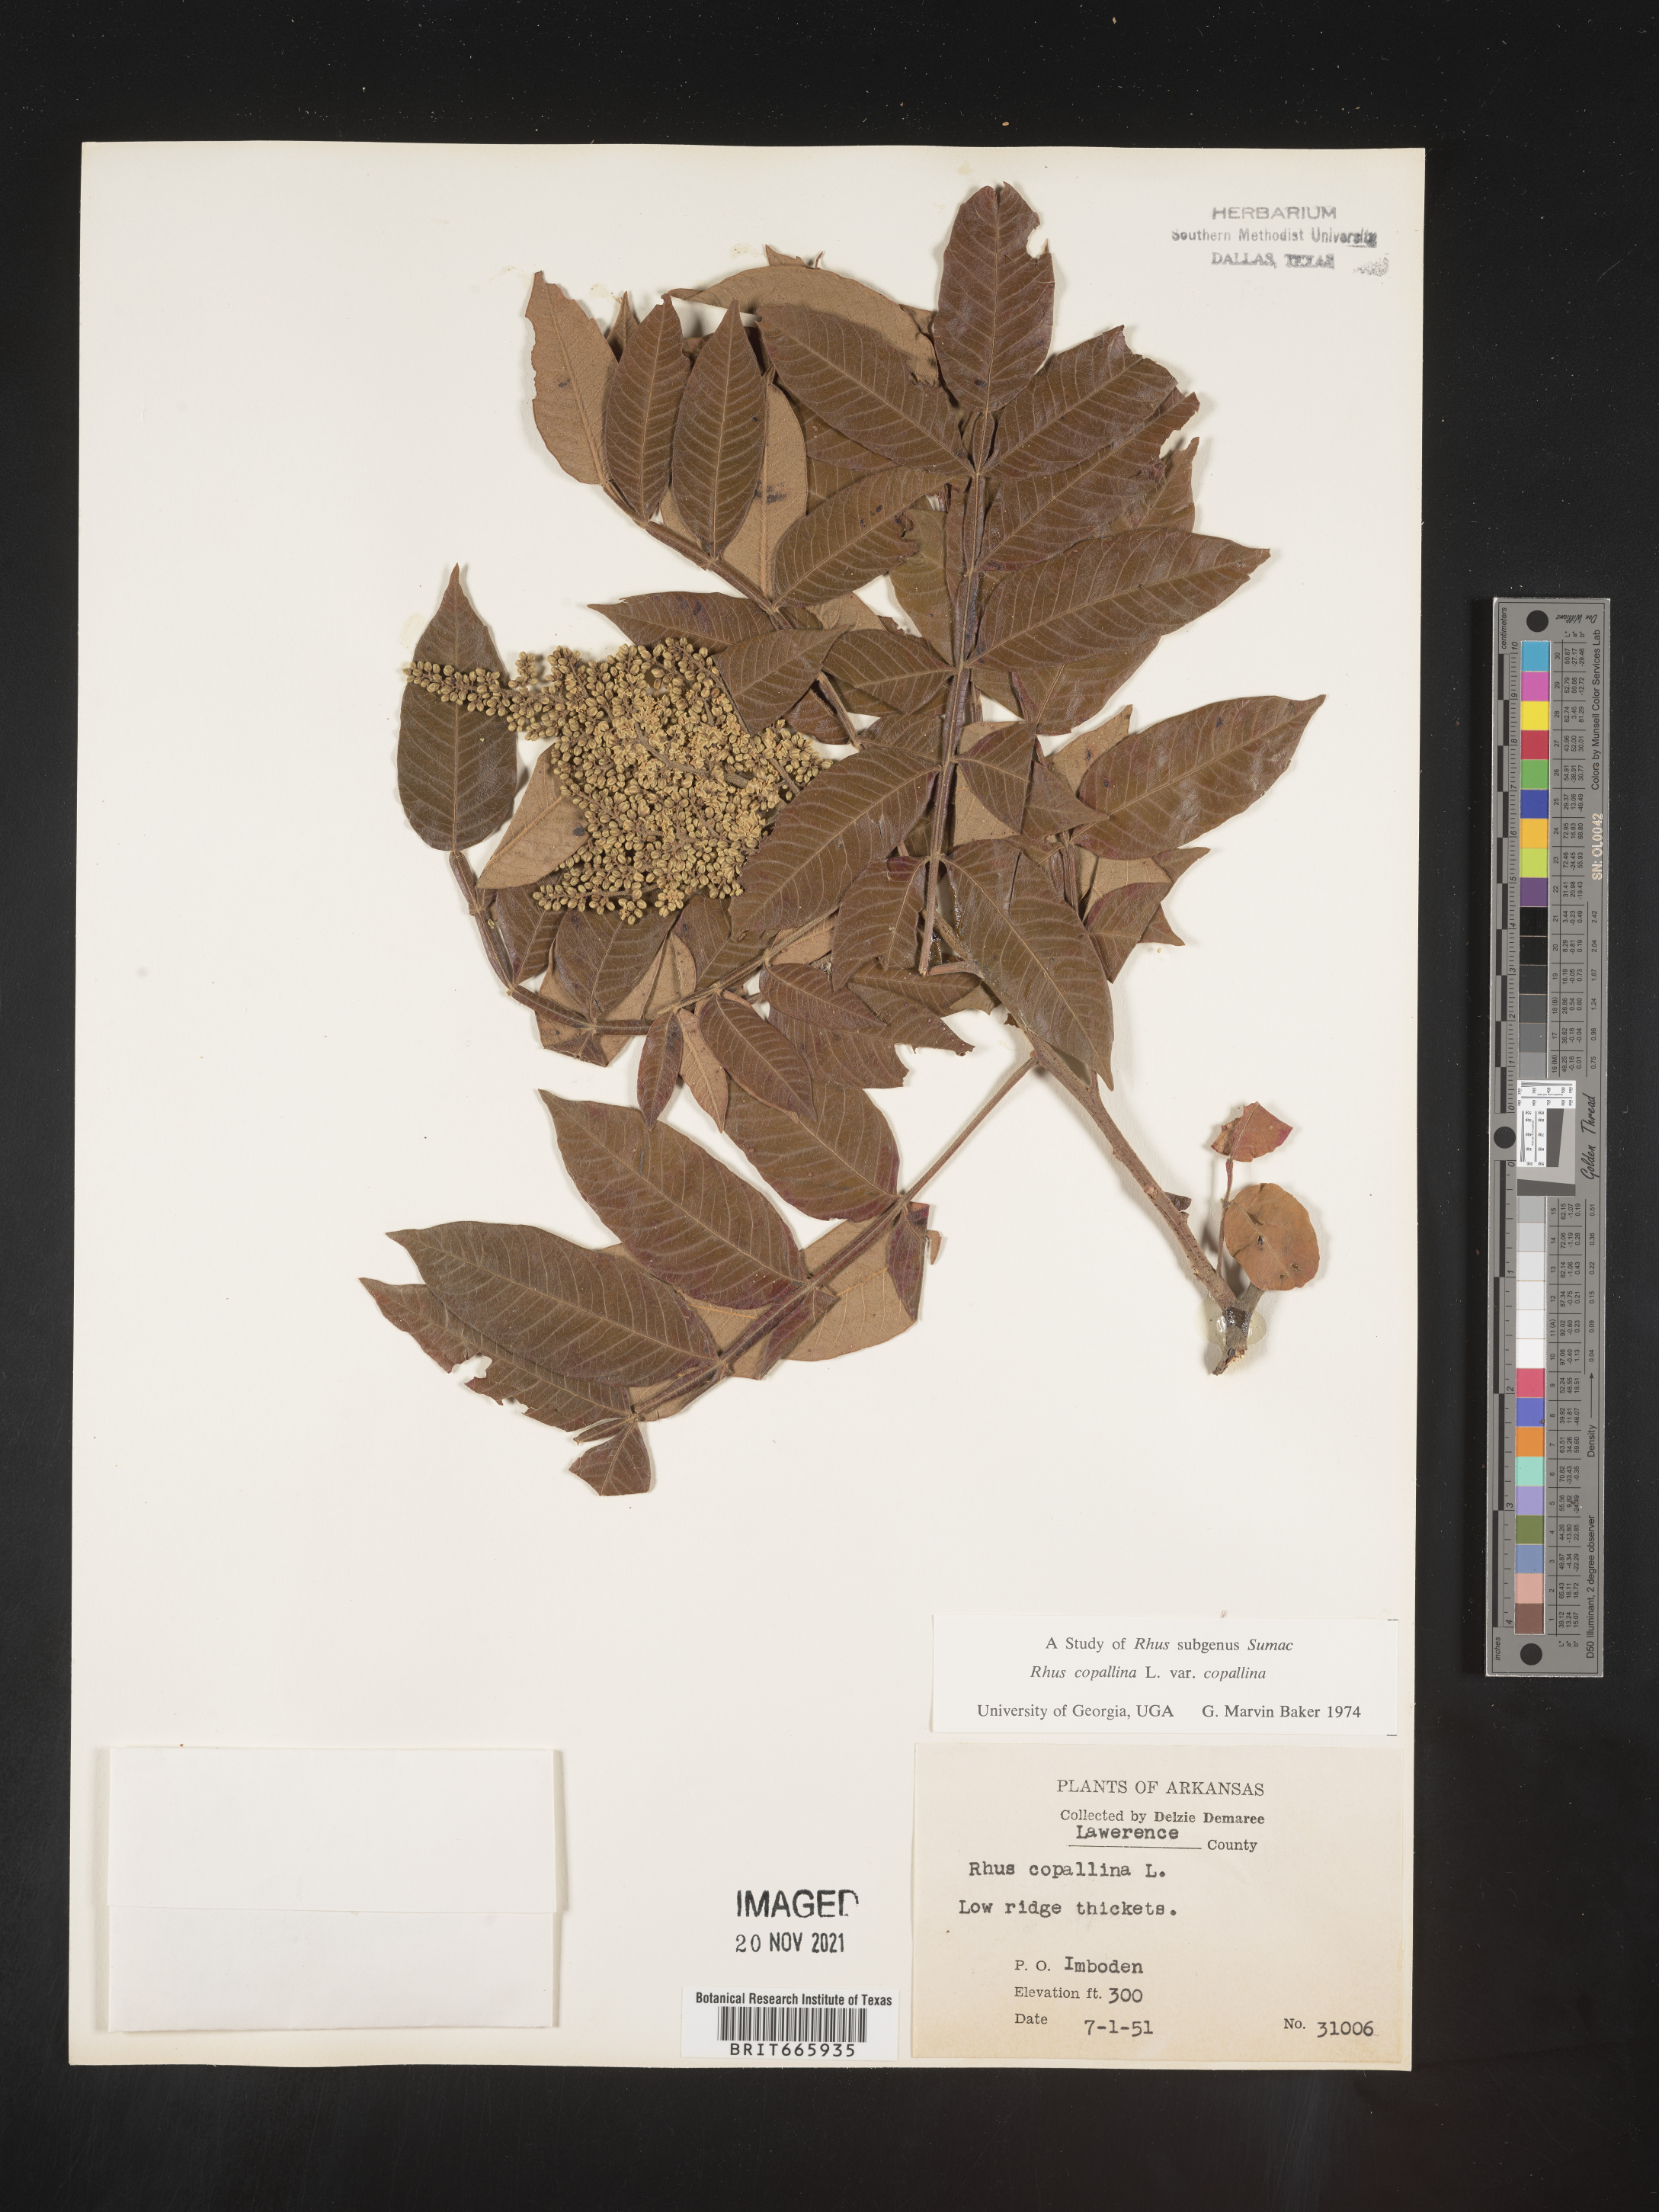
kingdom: Plantae
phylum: Tracheophyta
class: Magnoliopsida
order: Sapindales
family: Anacardiaceae
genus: Rhus
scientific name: Rhus copallina
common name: Shining sumac
